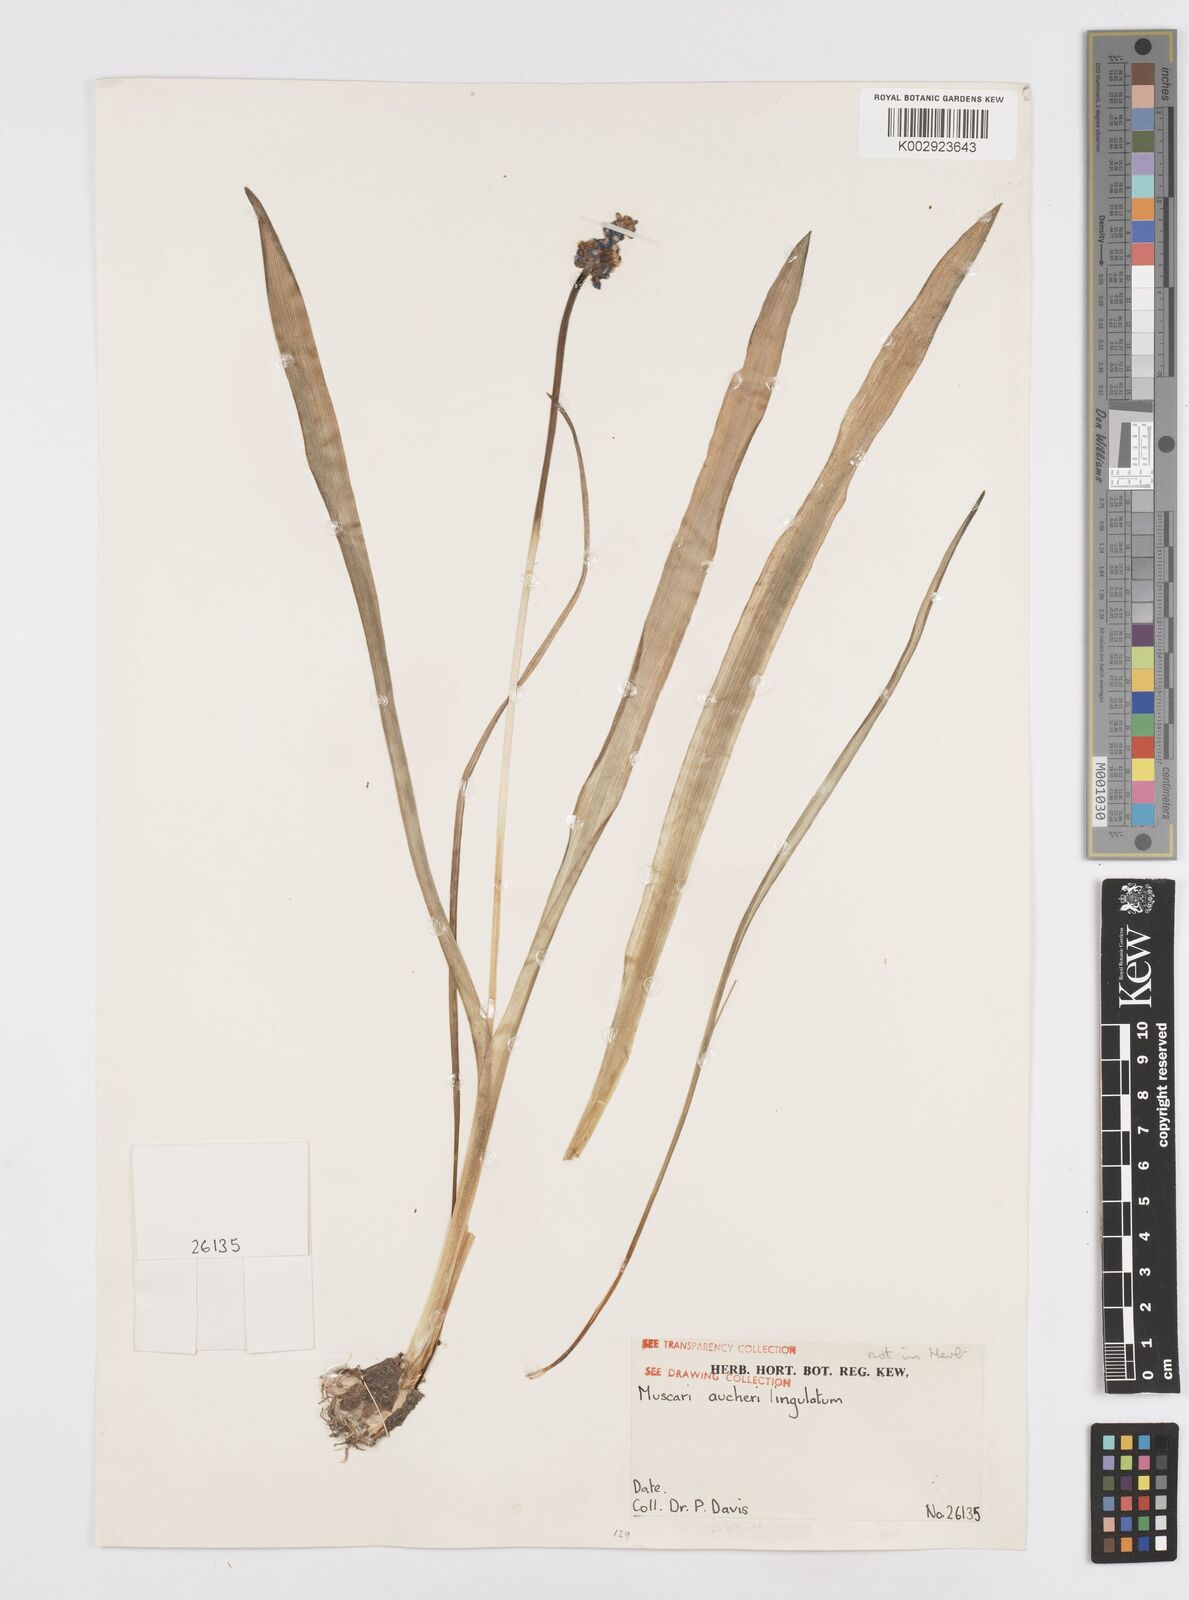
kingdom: Plantae
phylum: Tracheophyta
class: Liliopsida
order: Asparagales
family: Asparagaceae
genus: Muscari
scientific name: Muscari aucheri
